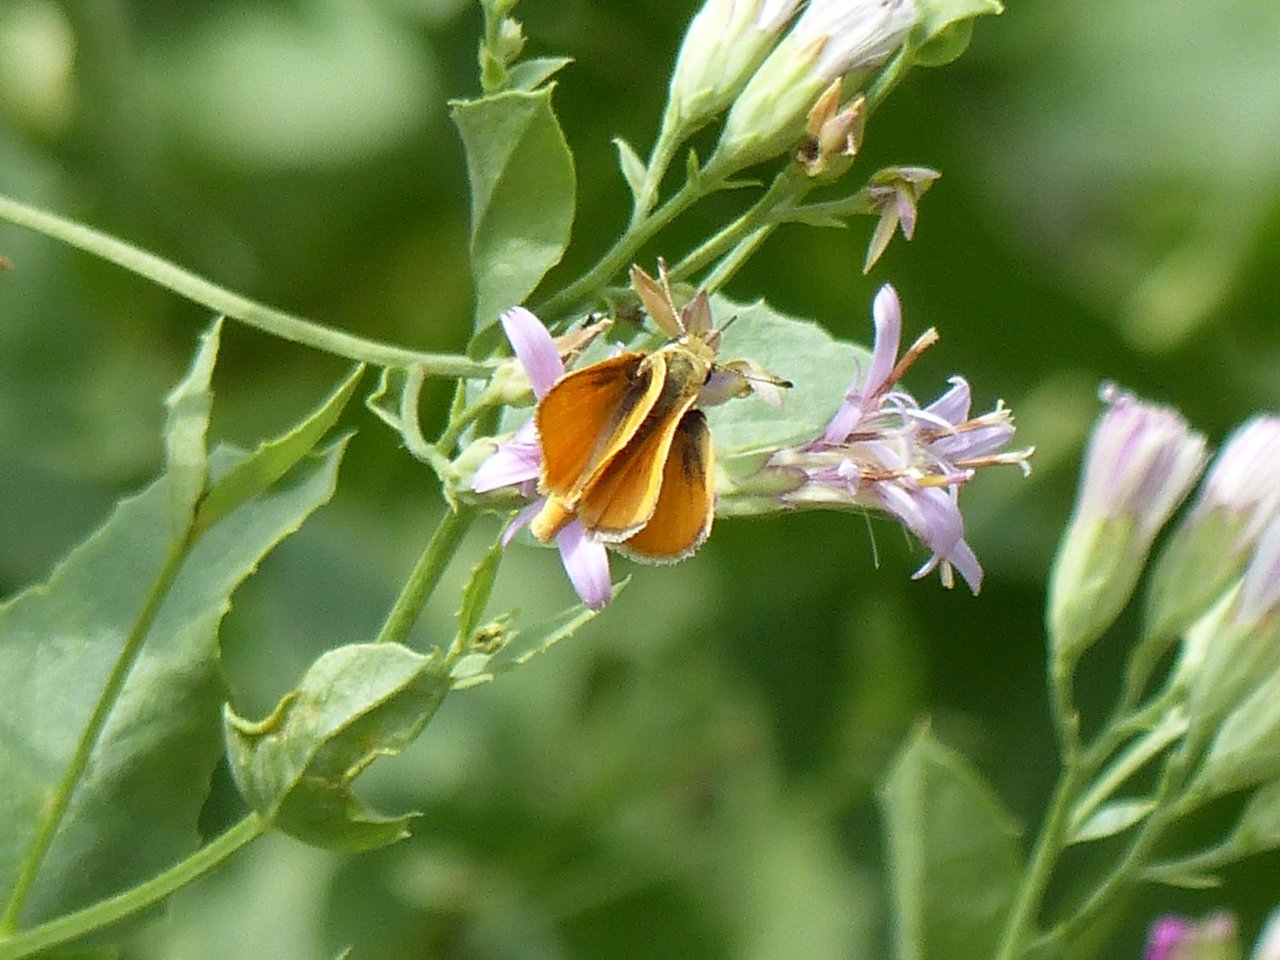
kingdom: Animalia
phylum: Arthropoda
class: Insecta
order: Lepidoptera
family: Hesperiidae
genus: Copaeodes
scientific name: Copaeodes aurantiaca
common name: Orange Skipperling
